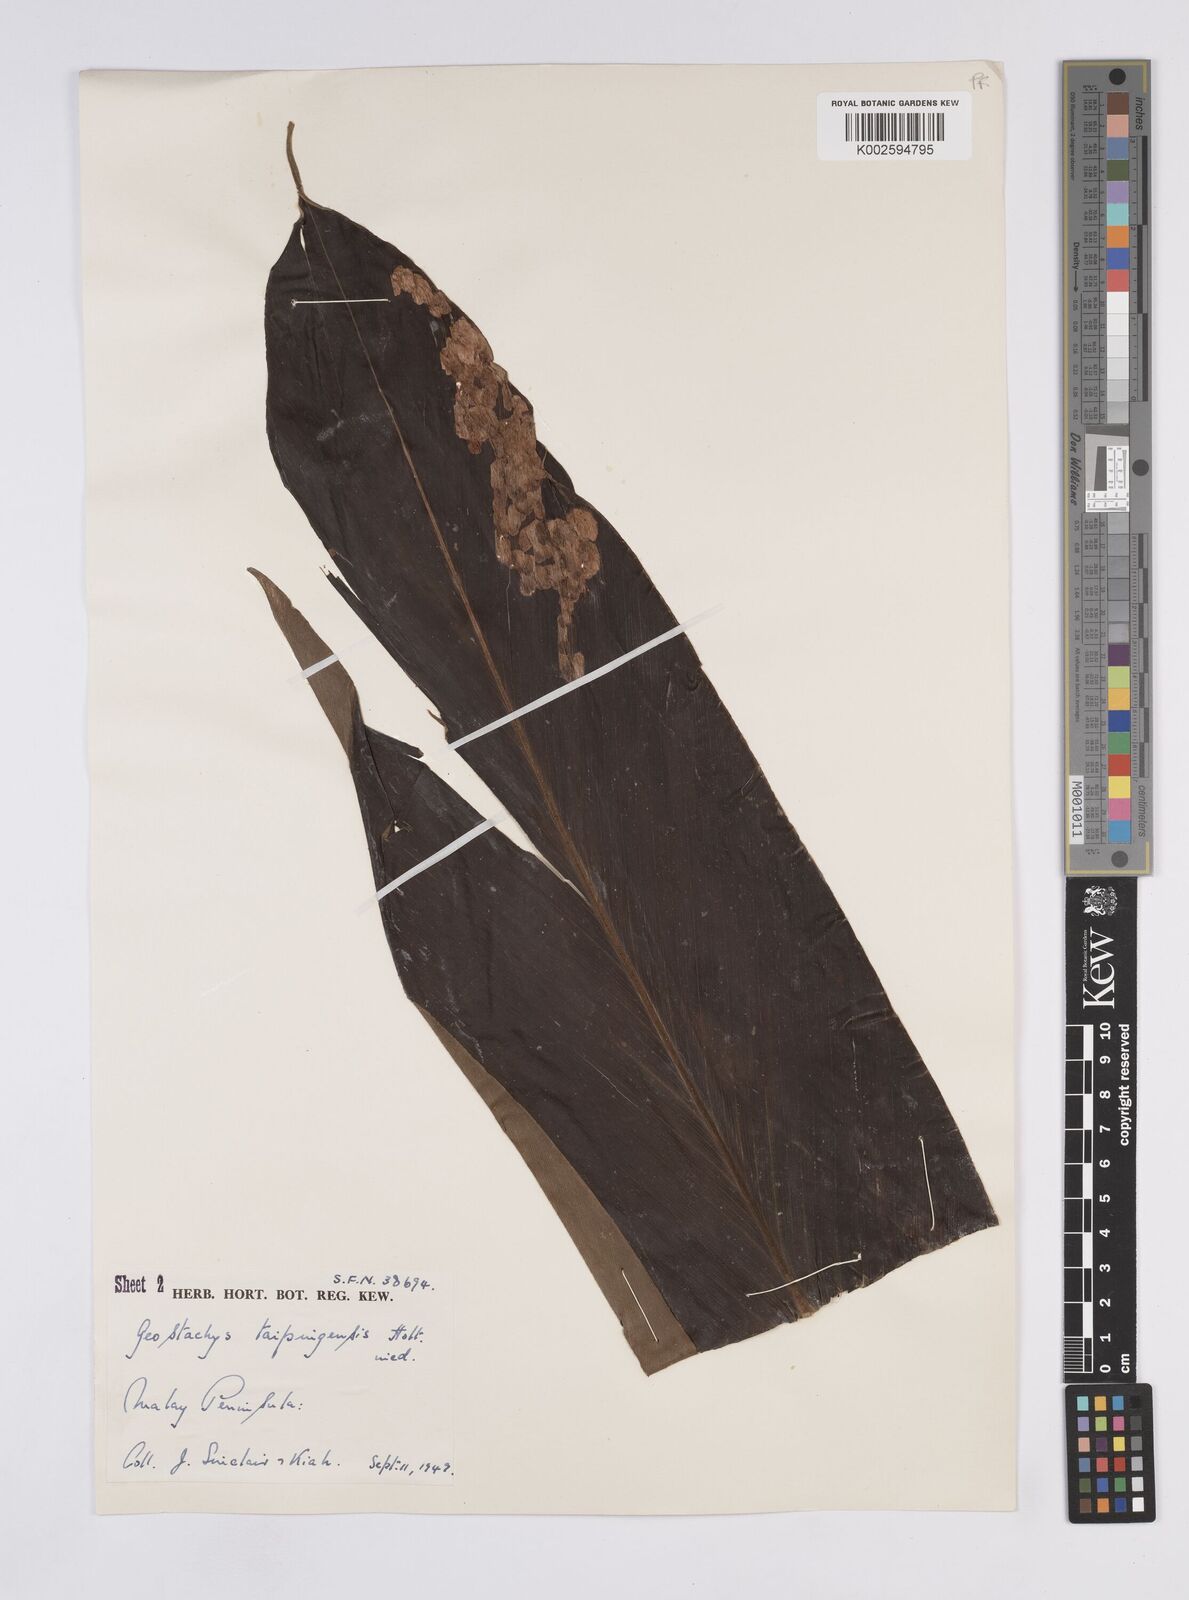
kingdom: Plantae
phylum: Tracheophyta
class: Liliopsida
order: Zingiberales
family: Zingiberaceae
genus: Geostachys
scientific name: Geostachys taipingensis
